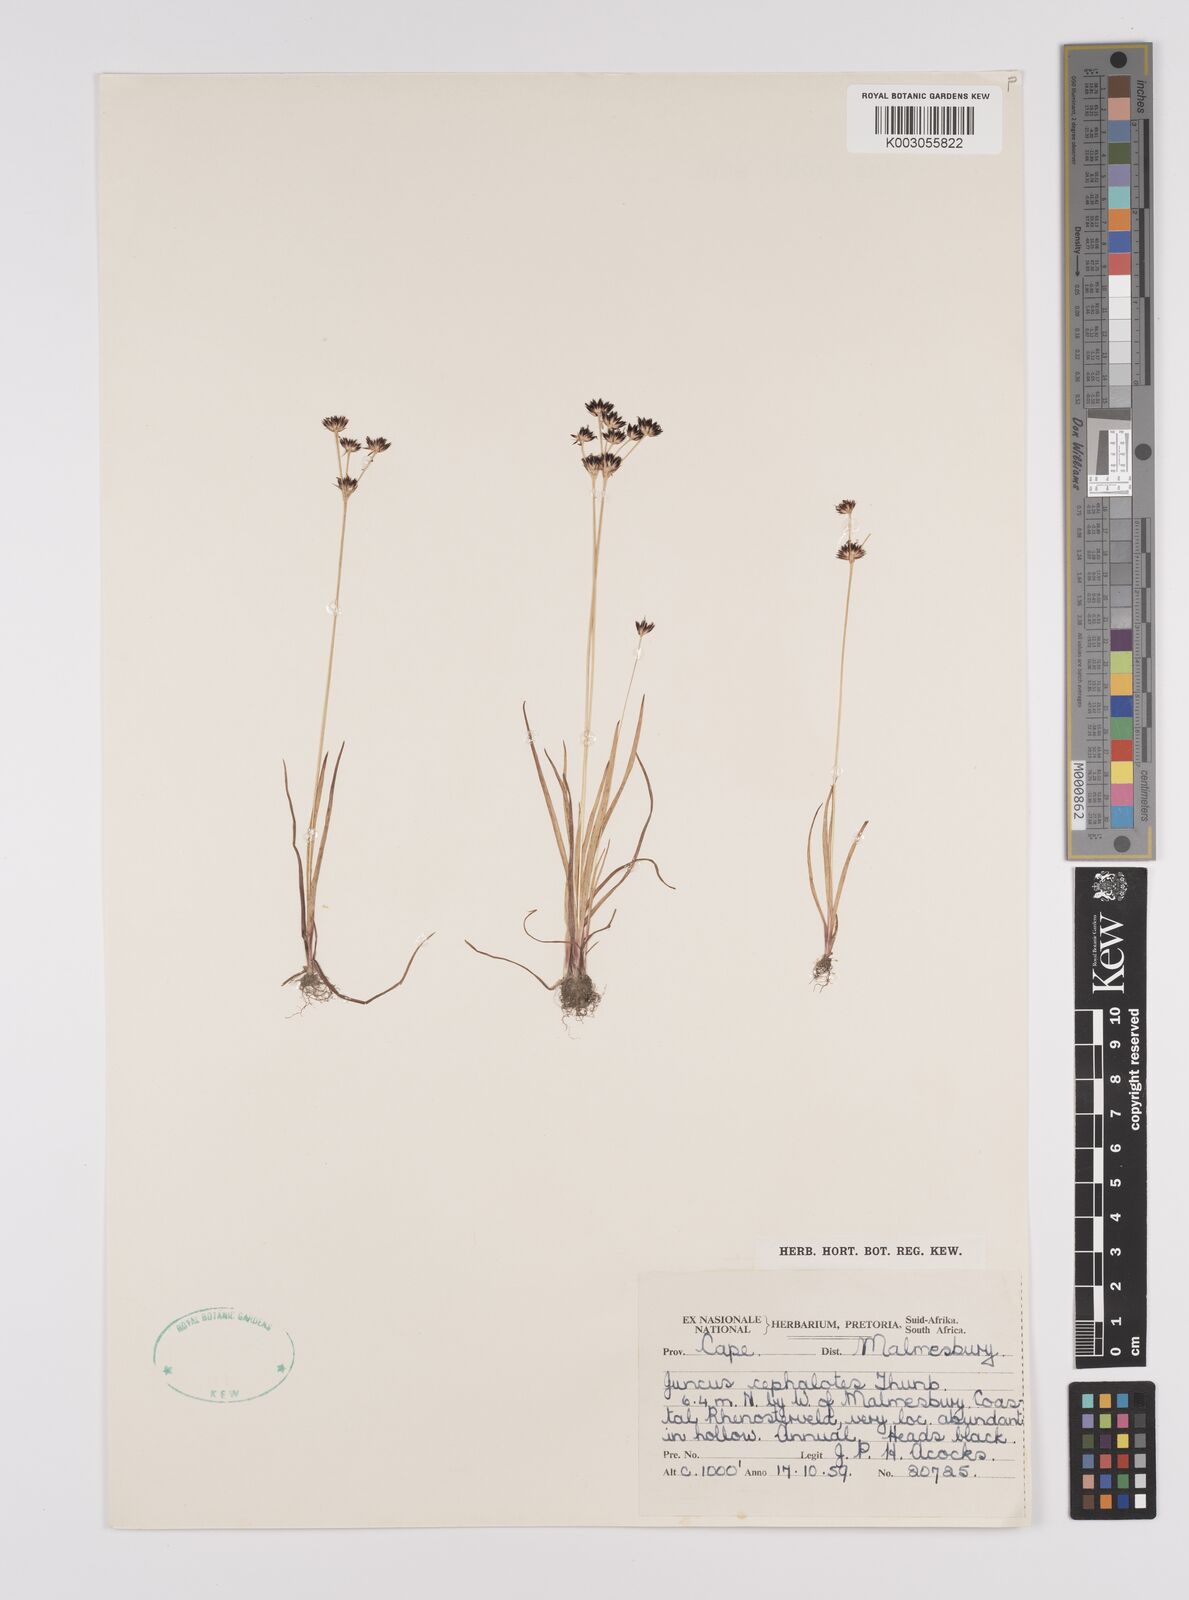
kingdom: Plantae
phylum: Tracheophyta
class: Liliopsida
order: Poales
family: Juncaceae
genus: Juncus
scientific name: Juncus cephalotes
